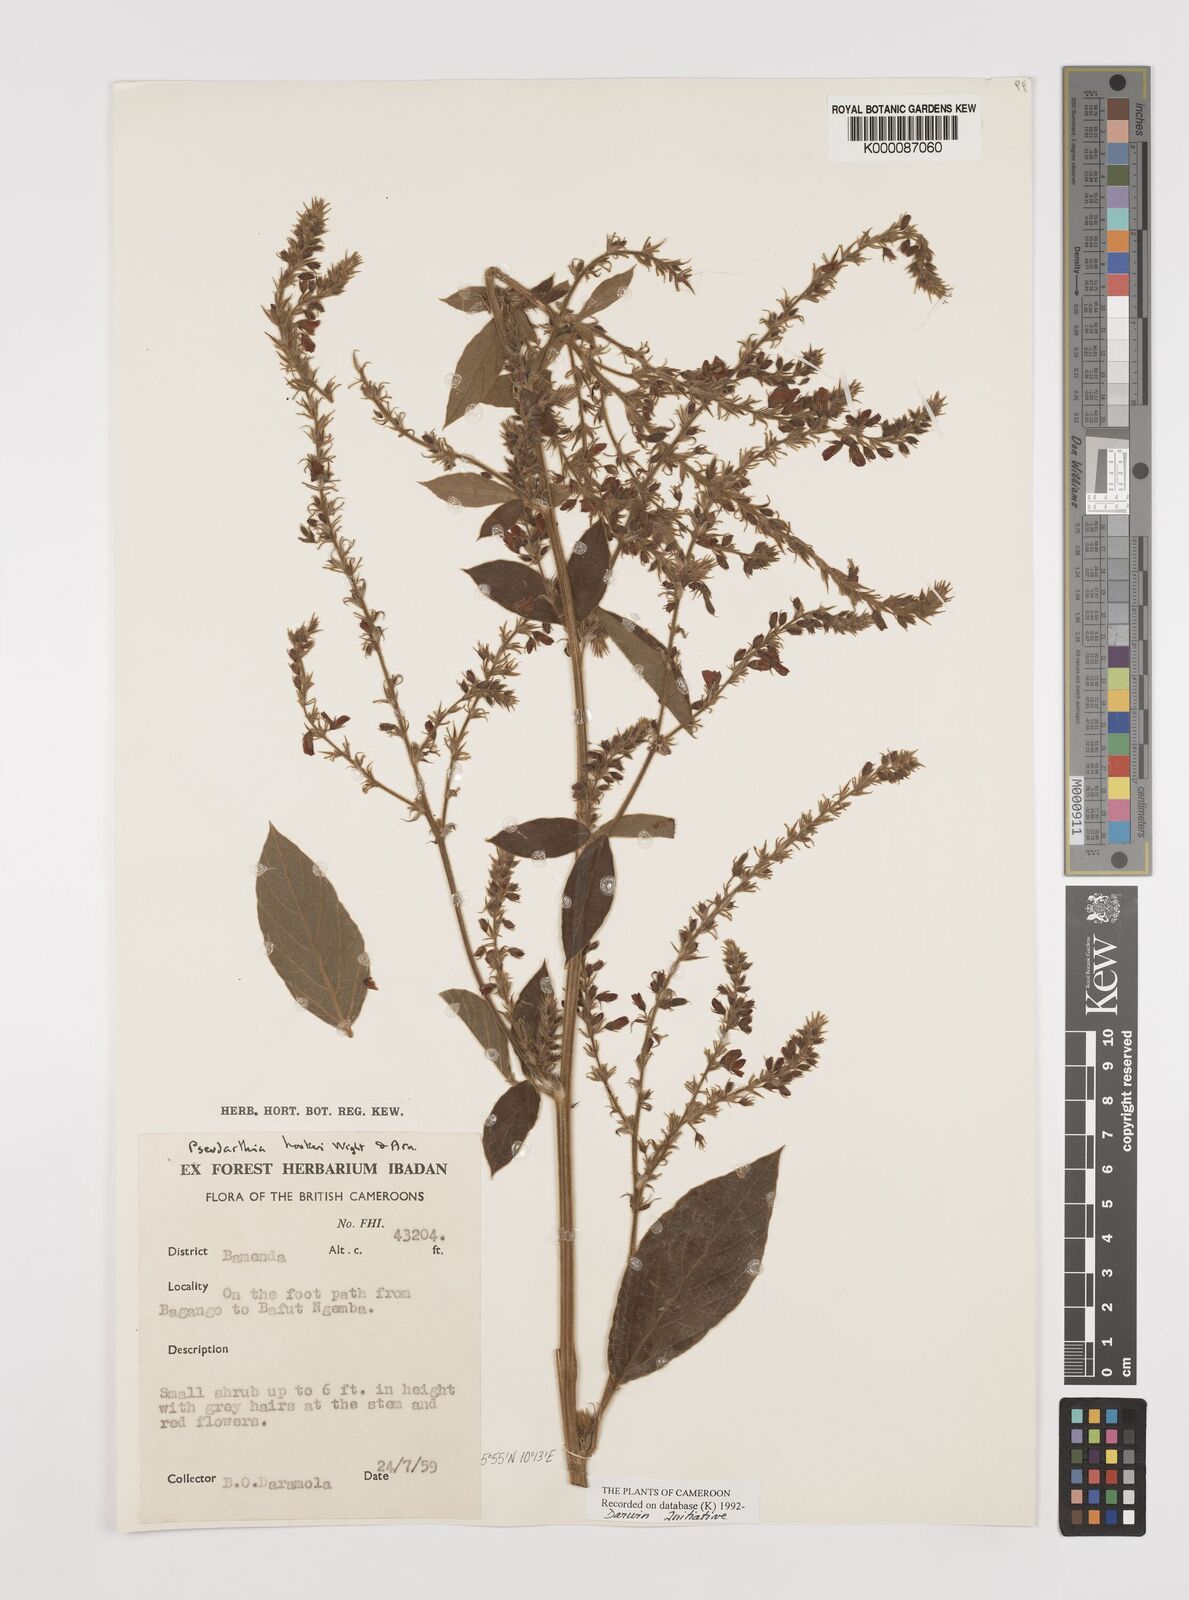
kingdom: Plantae
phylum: Tracheophyta
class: Magnoliopsida
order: Fabales
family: Fabaceae
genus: Pseudarthria
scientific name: Pseudarthria hookeri
